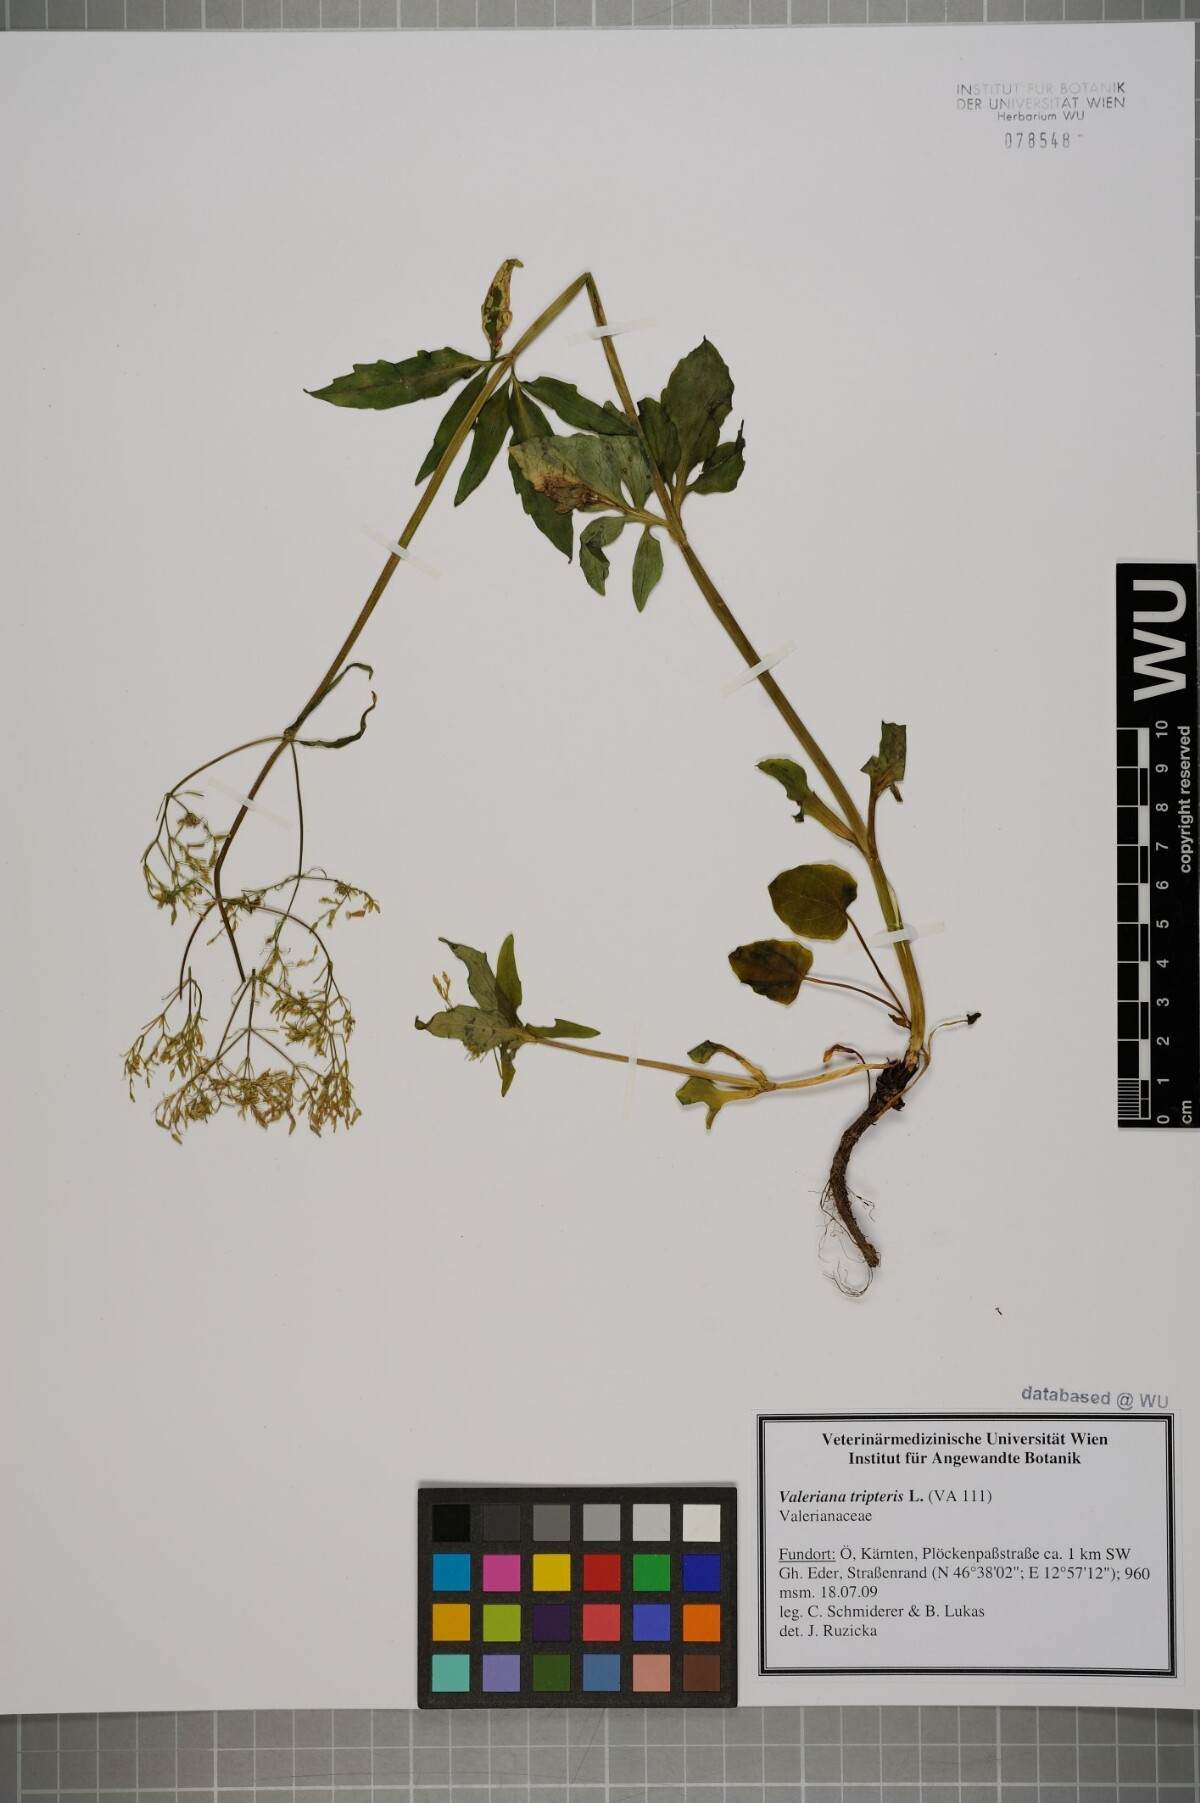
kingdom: Plantae
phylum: Tracheophyta
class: Magnoliopsida
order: Dipsacales
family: Caprifoliaceae
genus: Valeriana
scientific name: Valeriana tripteris
